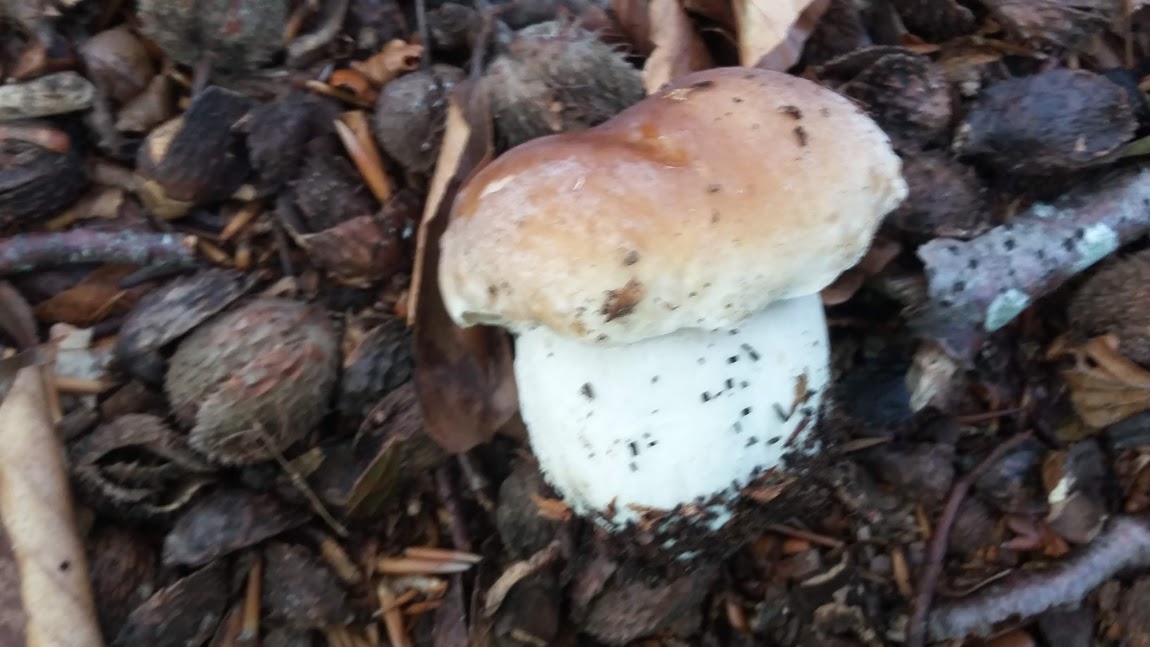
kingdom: Fungi
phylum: Basidiomycota
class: Agaricomycetes
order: Boletales
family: Boletaceae
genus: Boletus
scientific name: Boletus reticulatus
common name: sommer-rørhat
